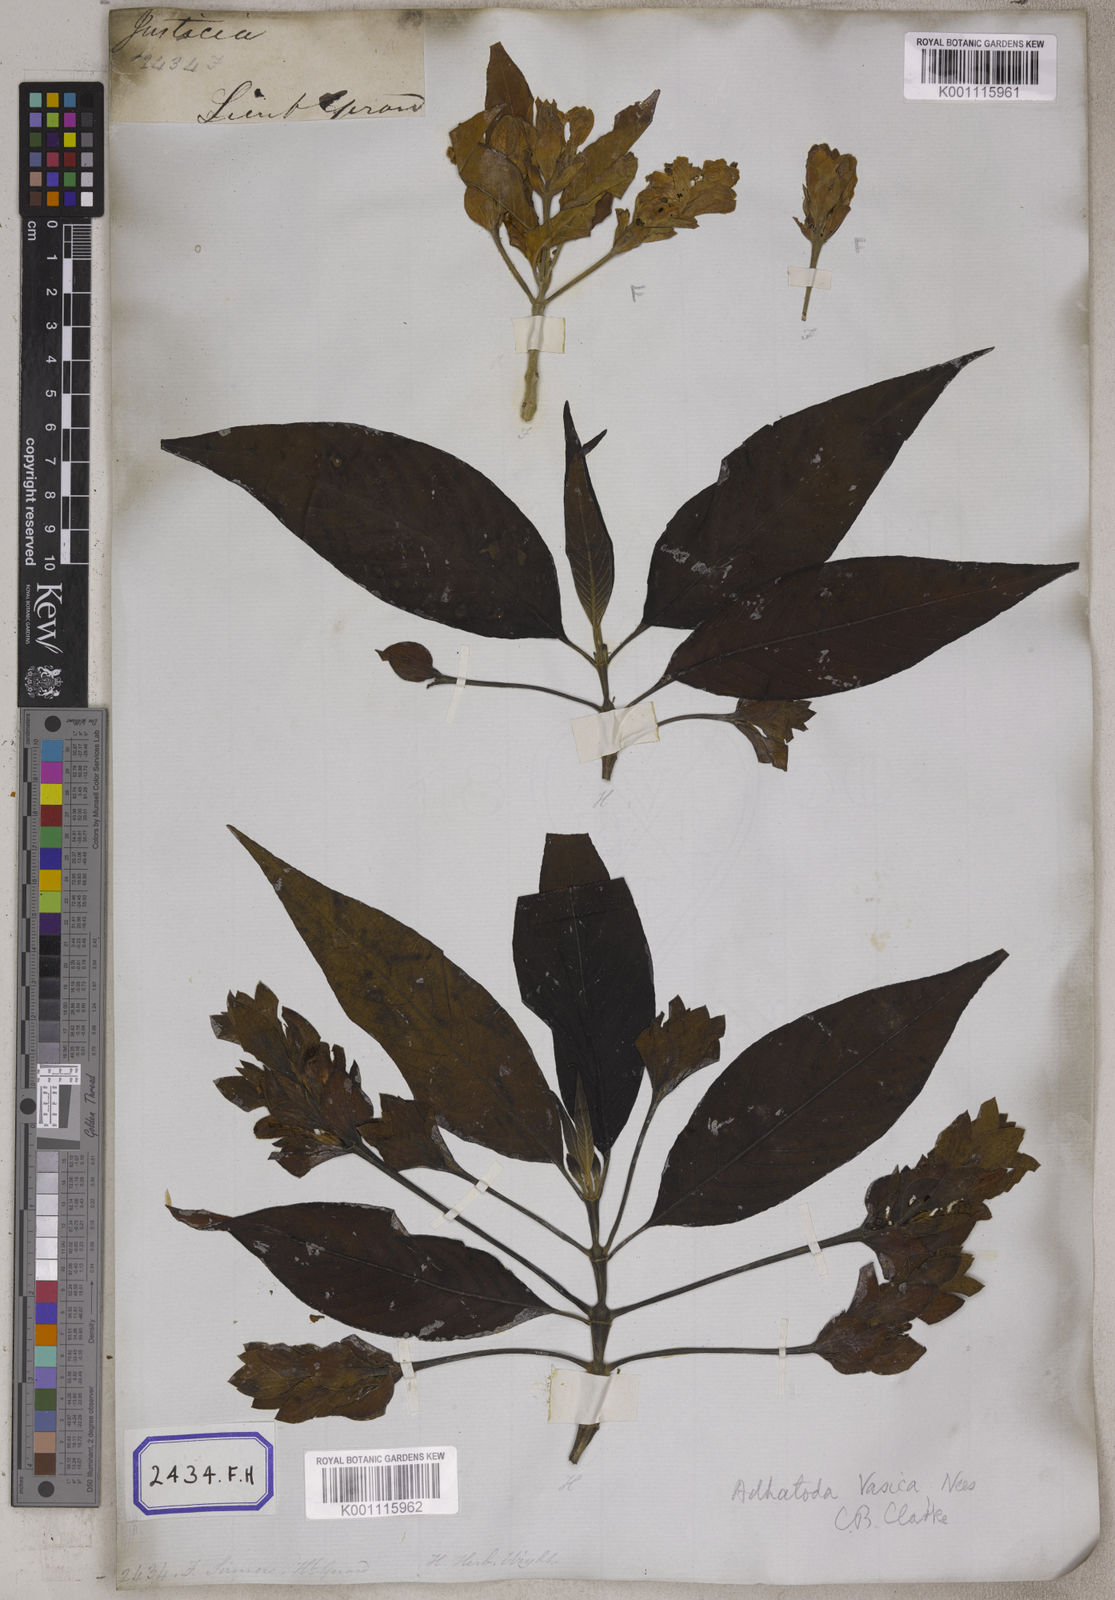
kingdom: Plantae
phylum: Tracheophyta
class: Magnoliopsida
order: Lamiales
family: Acanthaceae
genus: Justicia
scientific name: Justicia adhatoda
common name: Malabar nut
